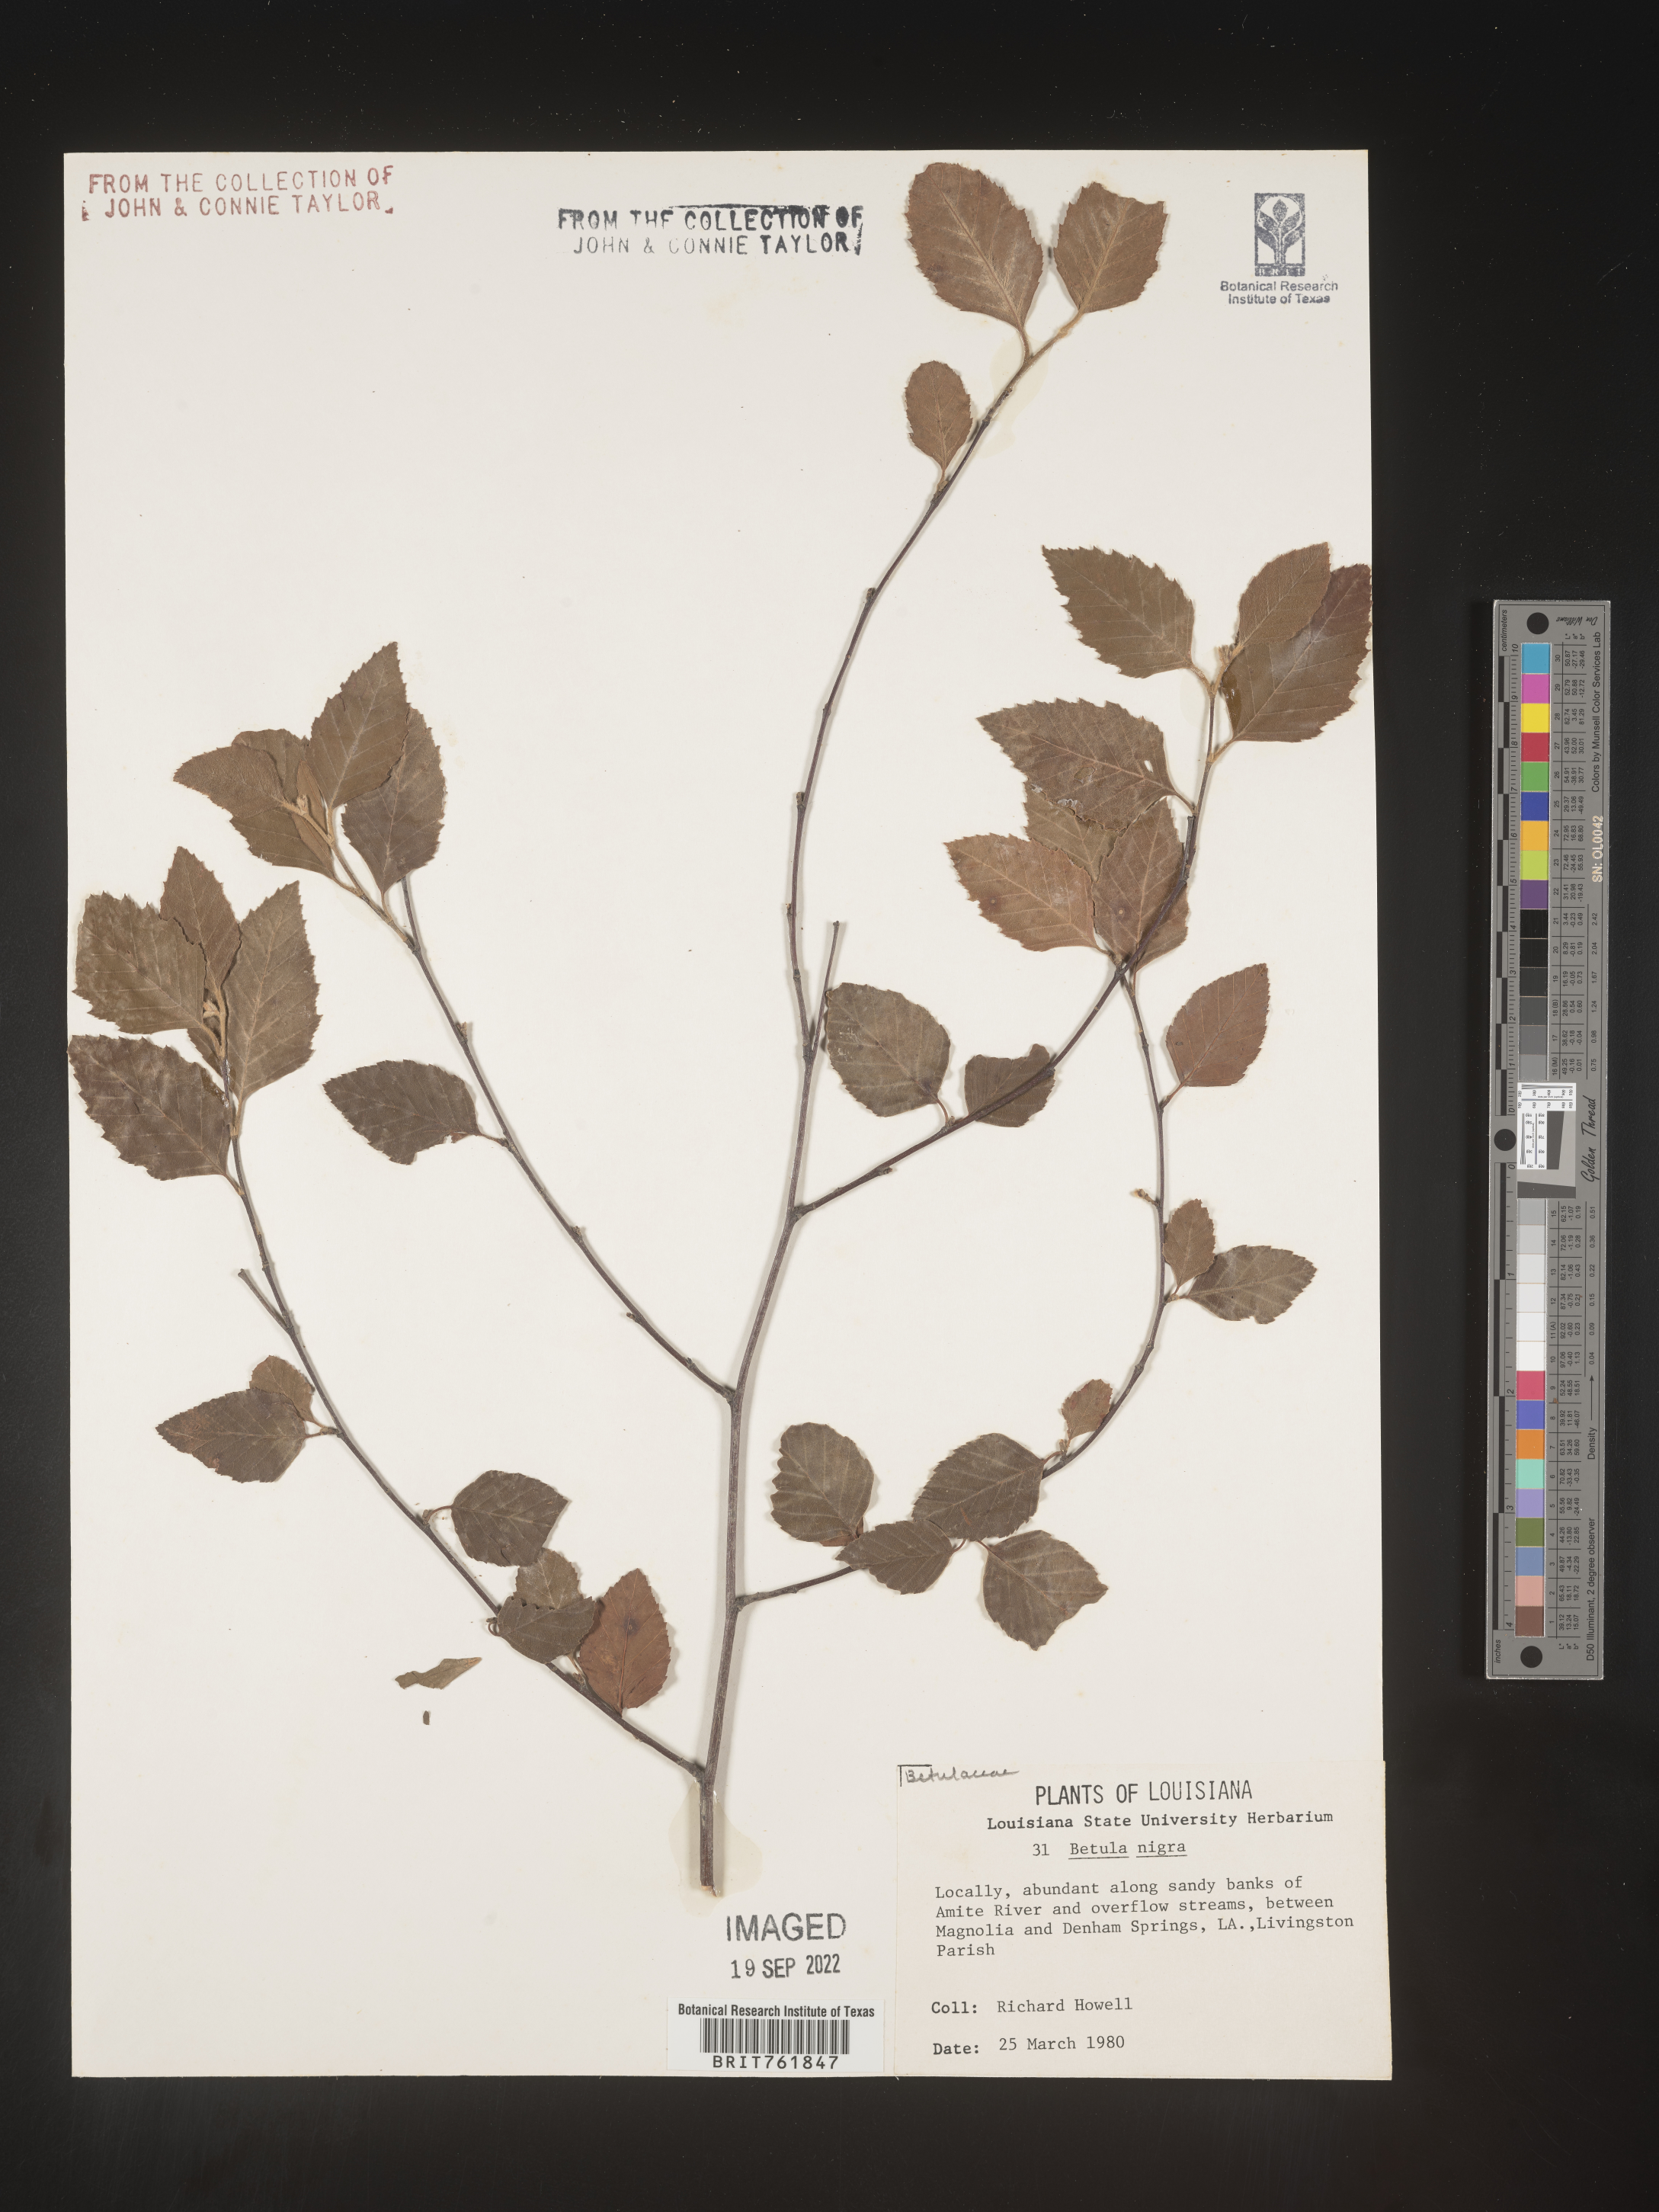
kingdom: Plantae
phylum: Tracheophyta
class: Magnoliopsida
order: Fagales
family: Betulaceae
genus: Betula
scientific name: Betula nigra
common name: Black birch
